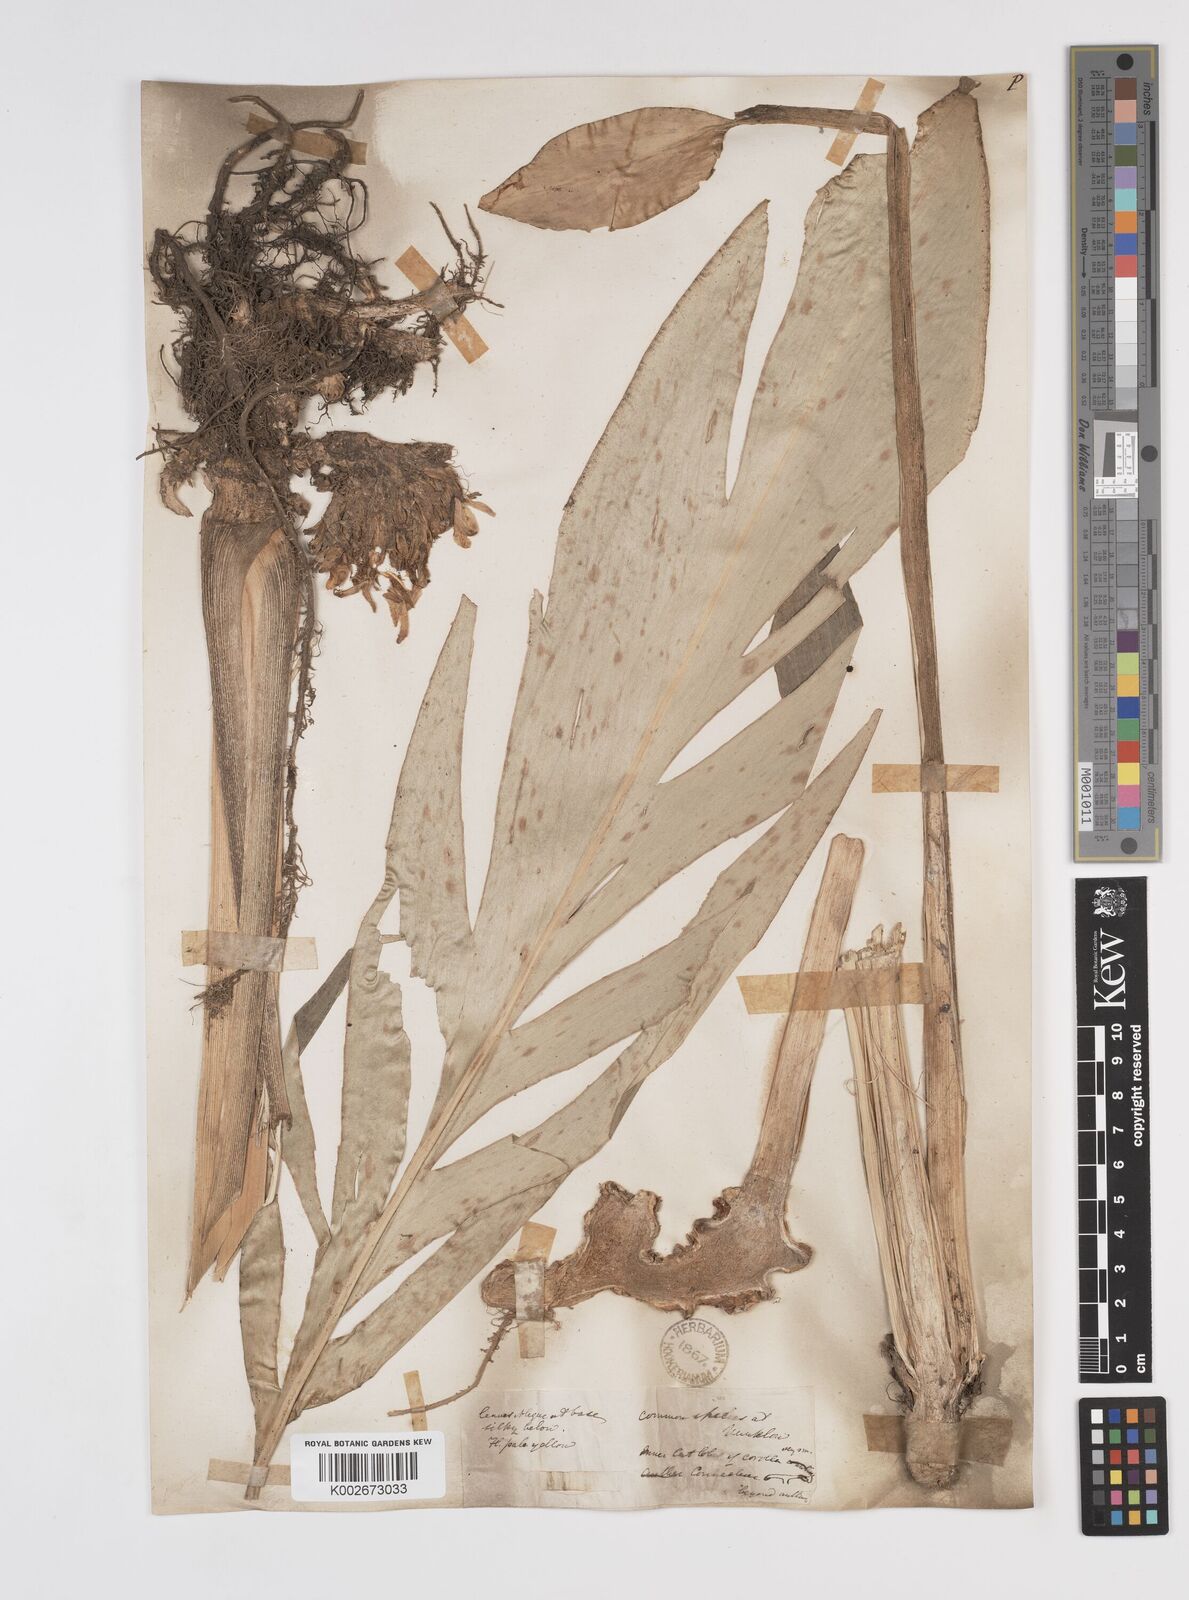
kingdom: Plantae
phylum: Tracheophyta
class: Liliopsida
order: Zingiberales
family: Zingiberaceae
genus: Amomum
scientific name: Amomum dealbatum
